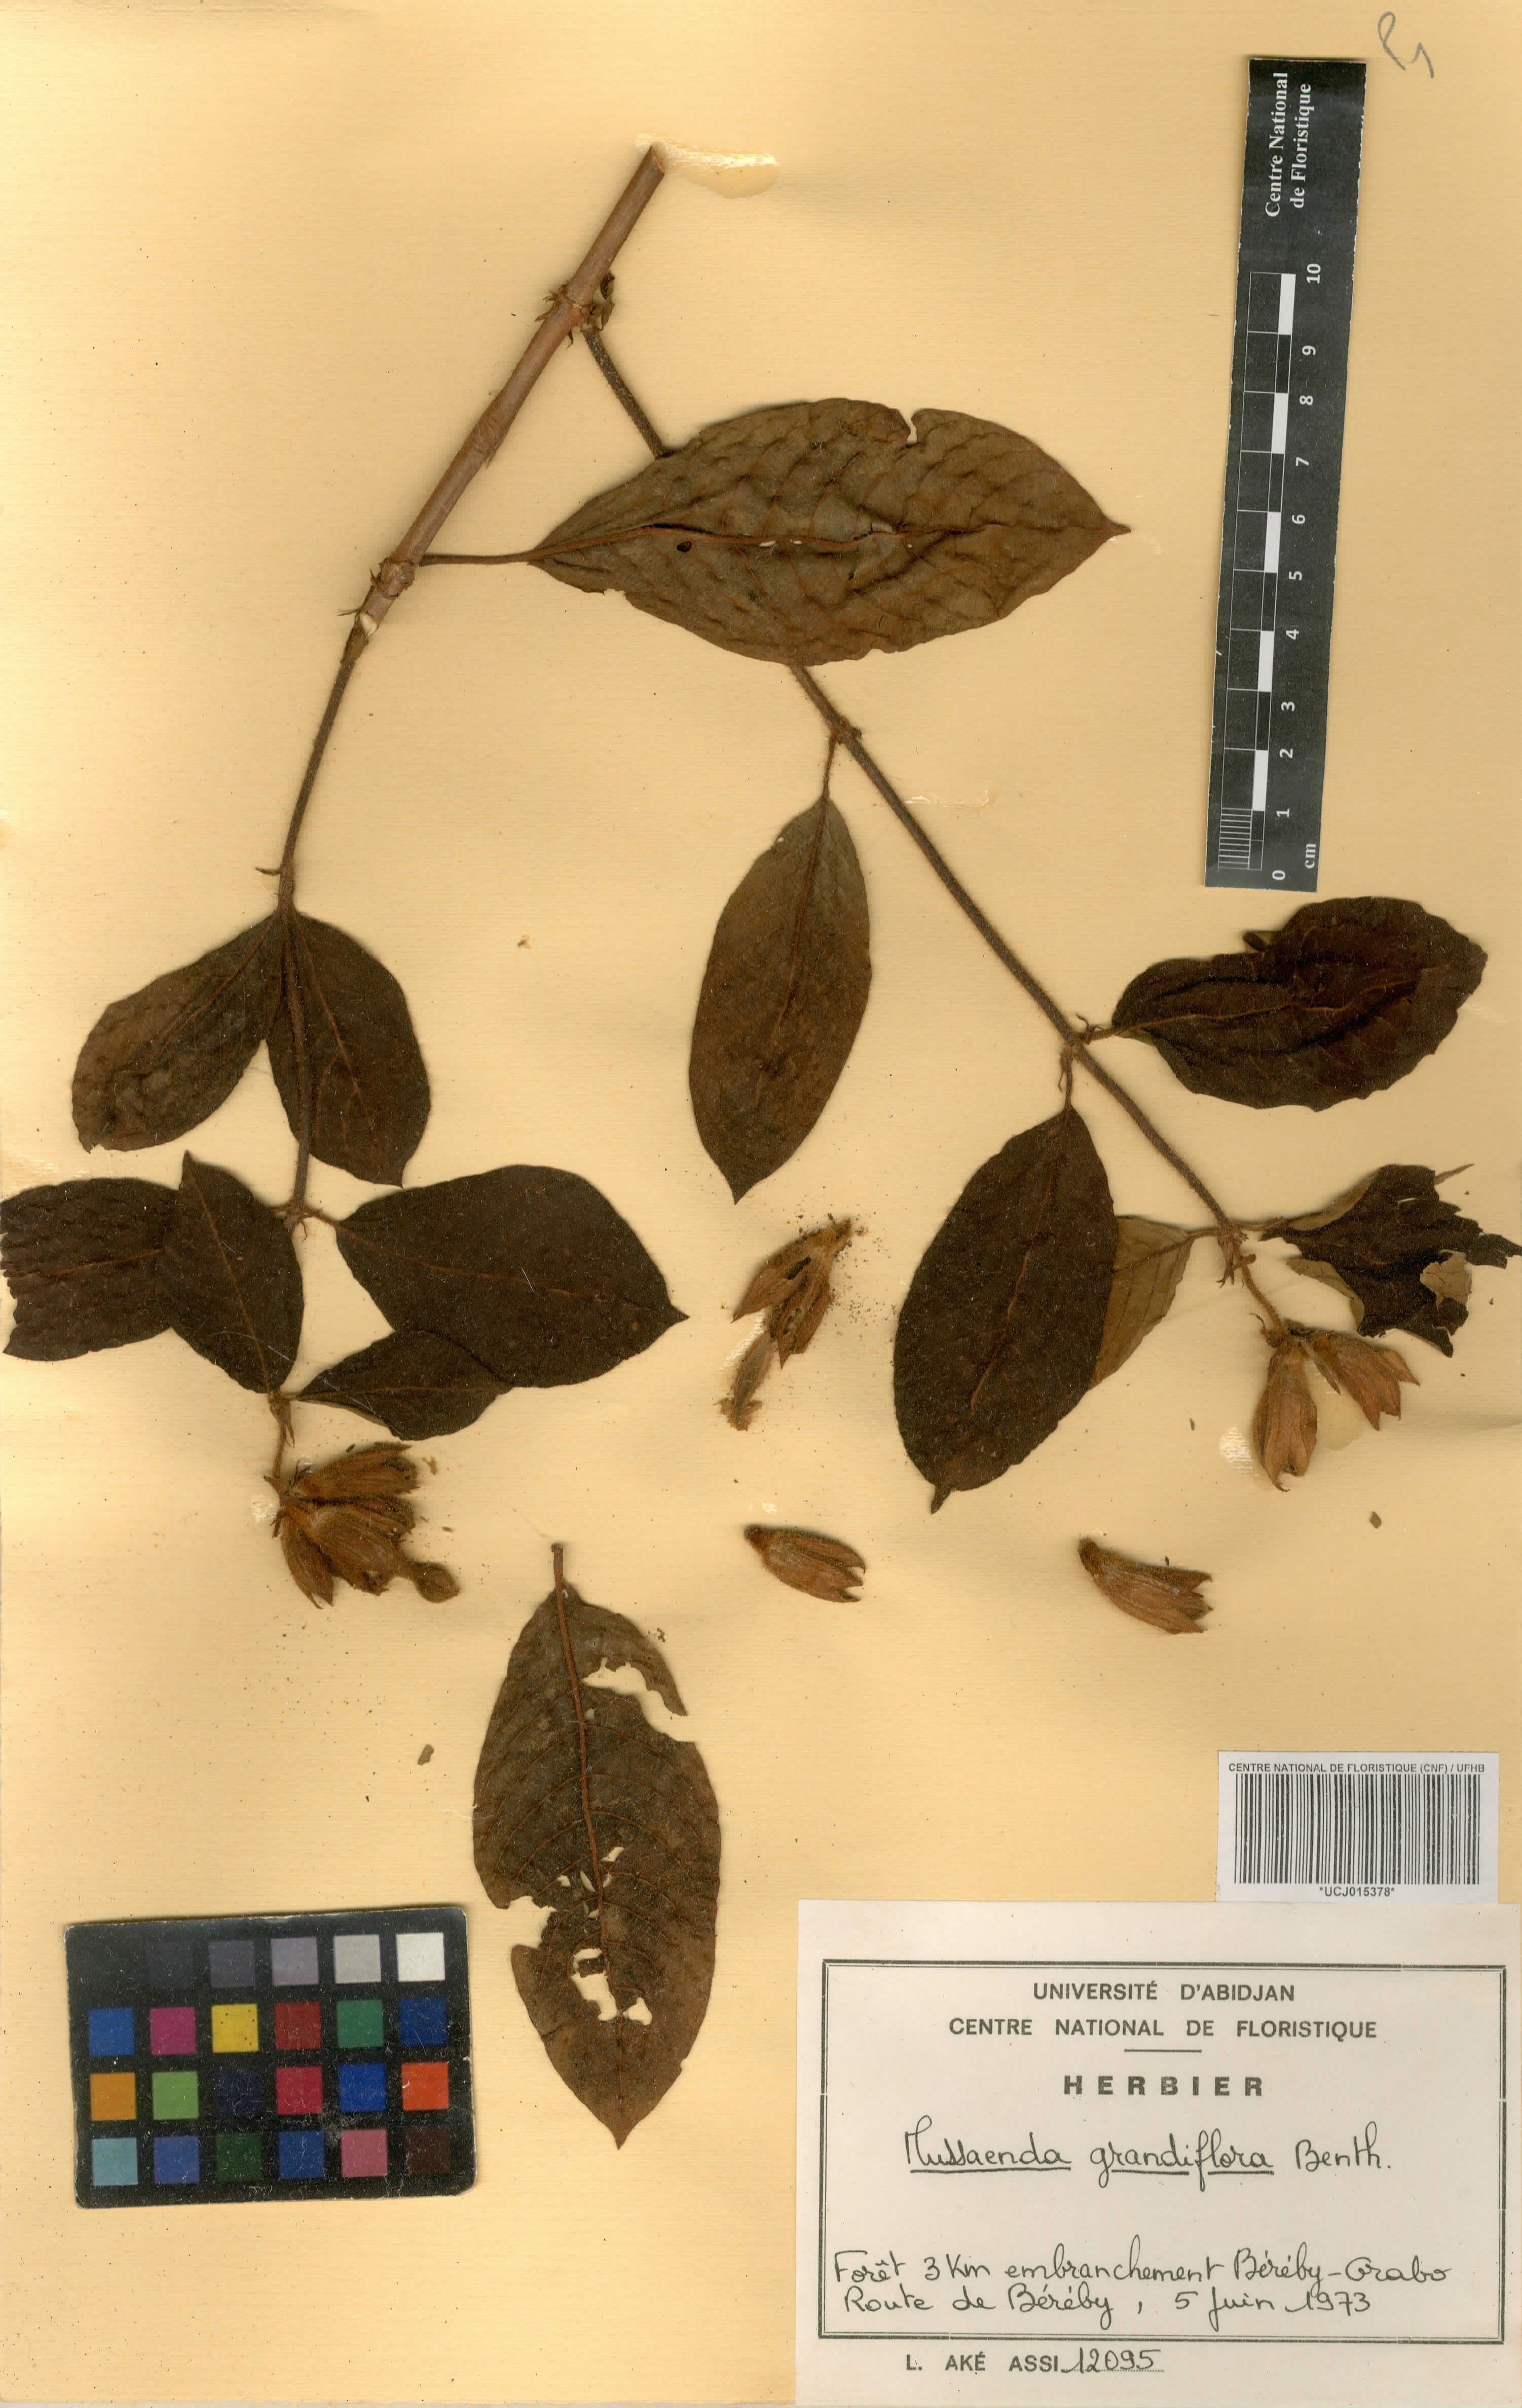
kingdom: Plantae
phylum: Tracheophyta
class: Magnoliopsida
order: Gentianales
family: Rubiaceae
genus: Mussaenda
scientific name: Mussaenda grandiflora
